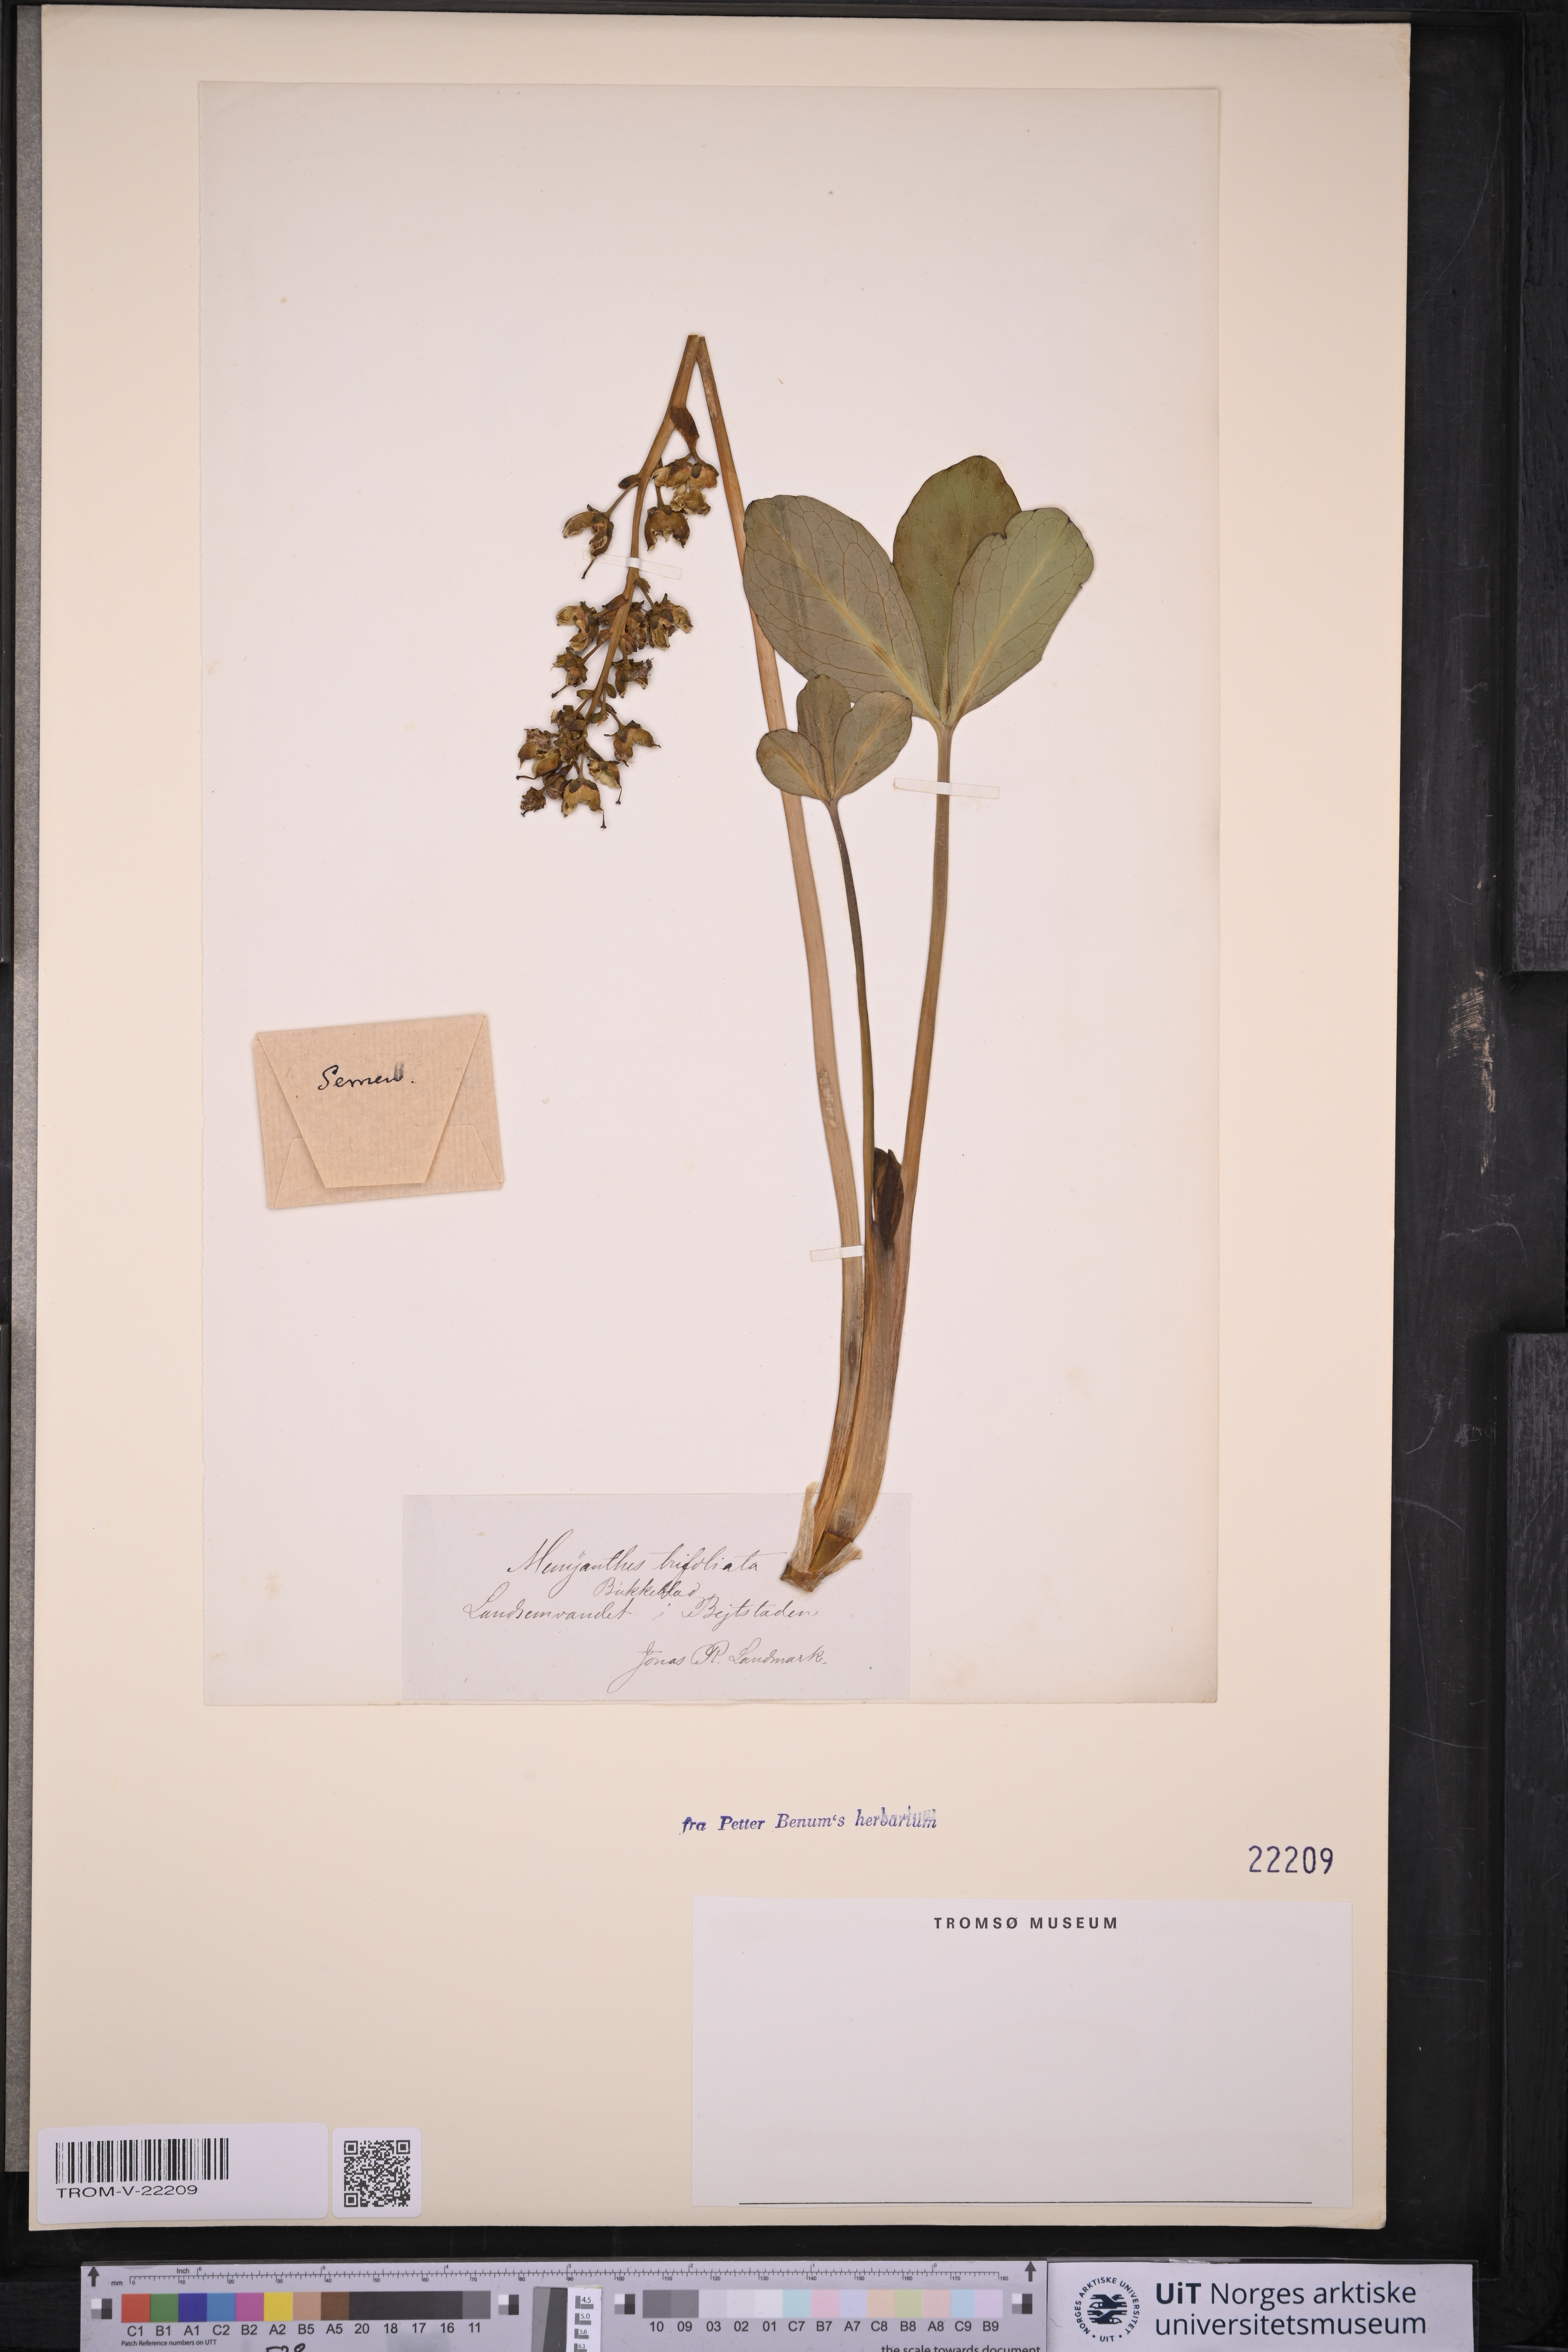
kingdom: Plantae
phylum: Tracheophyta
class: Magnoliopsida
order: Asterales
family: Menyanthaceae
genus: Menyanthes
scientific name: Menyanthes trifoliata
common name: Bogbean
